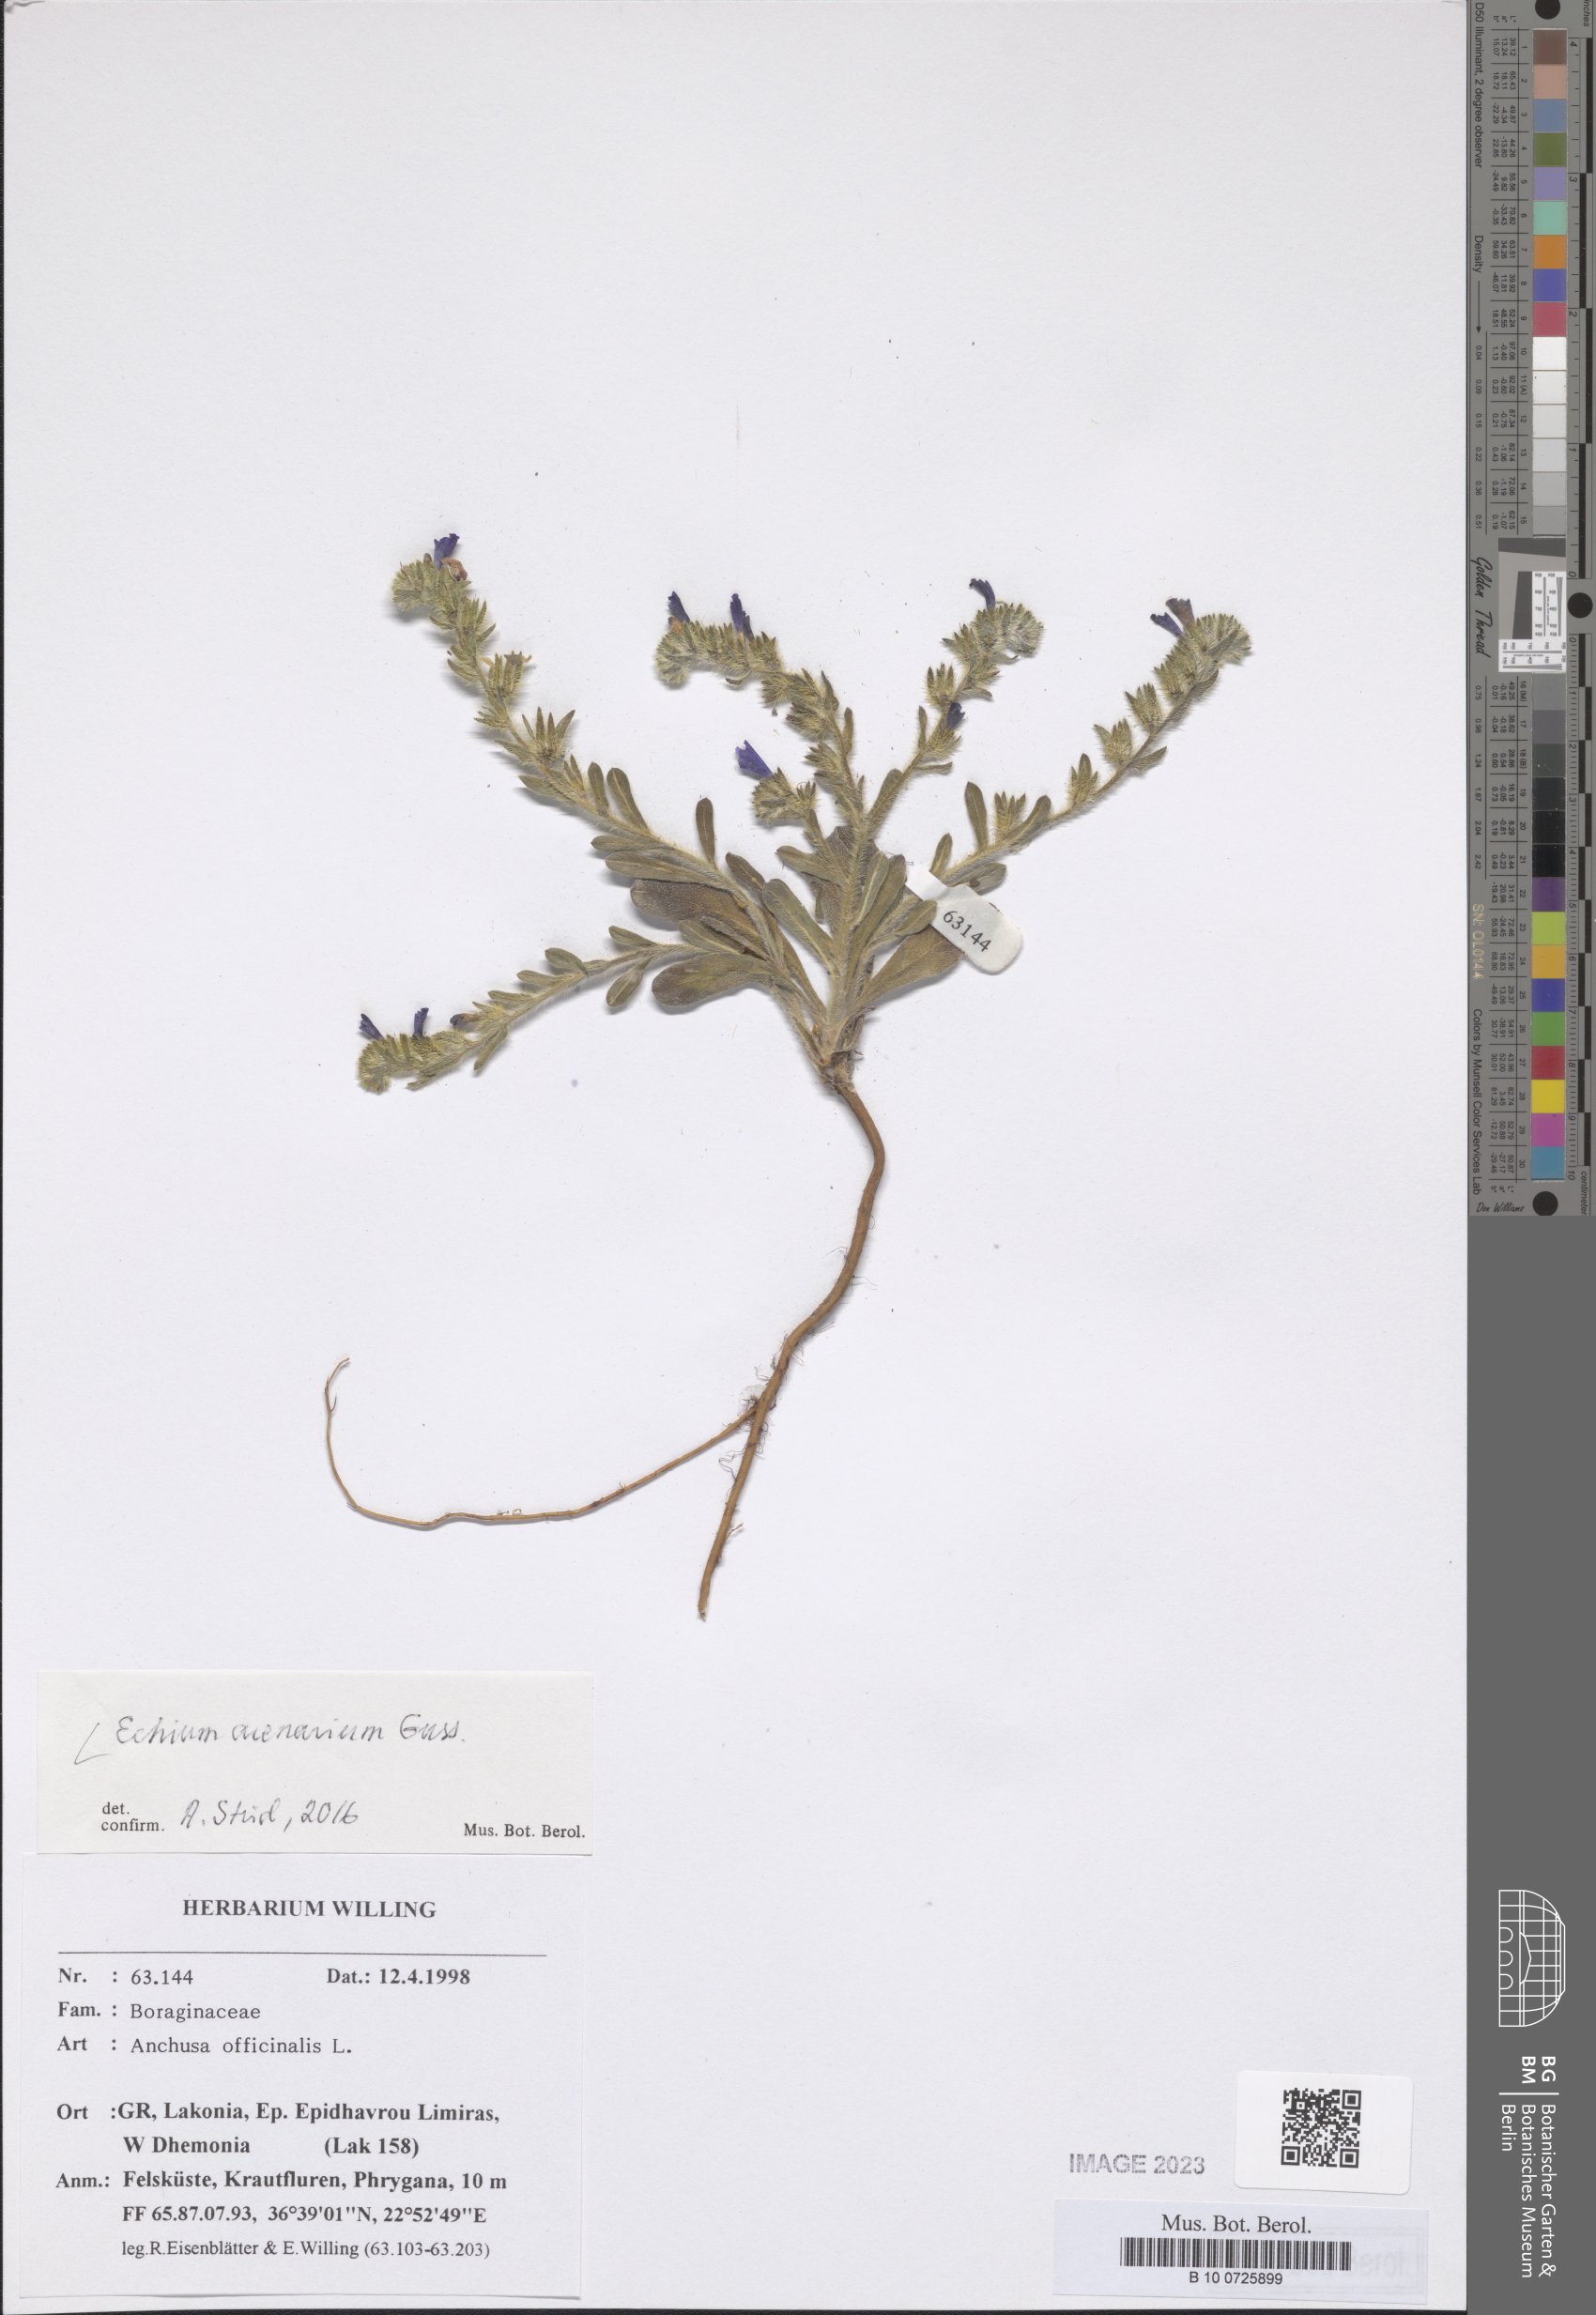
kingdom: Plantae
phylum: Tracheophyta
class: Magnoliopsida
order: Boraginales
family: Boraginaceae
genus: Echium
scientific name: Echium arenarium
